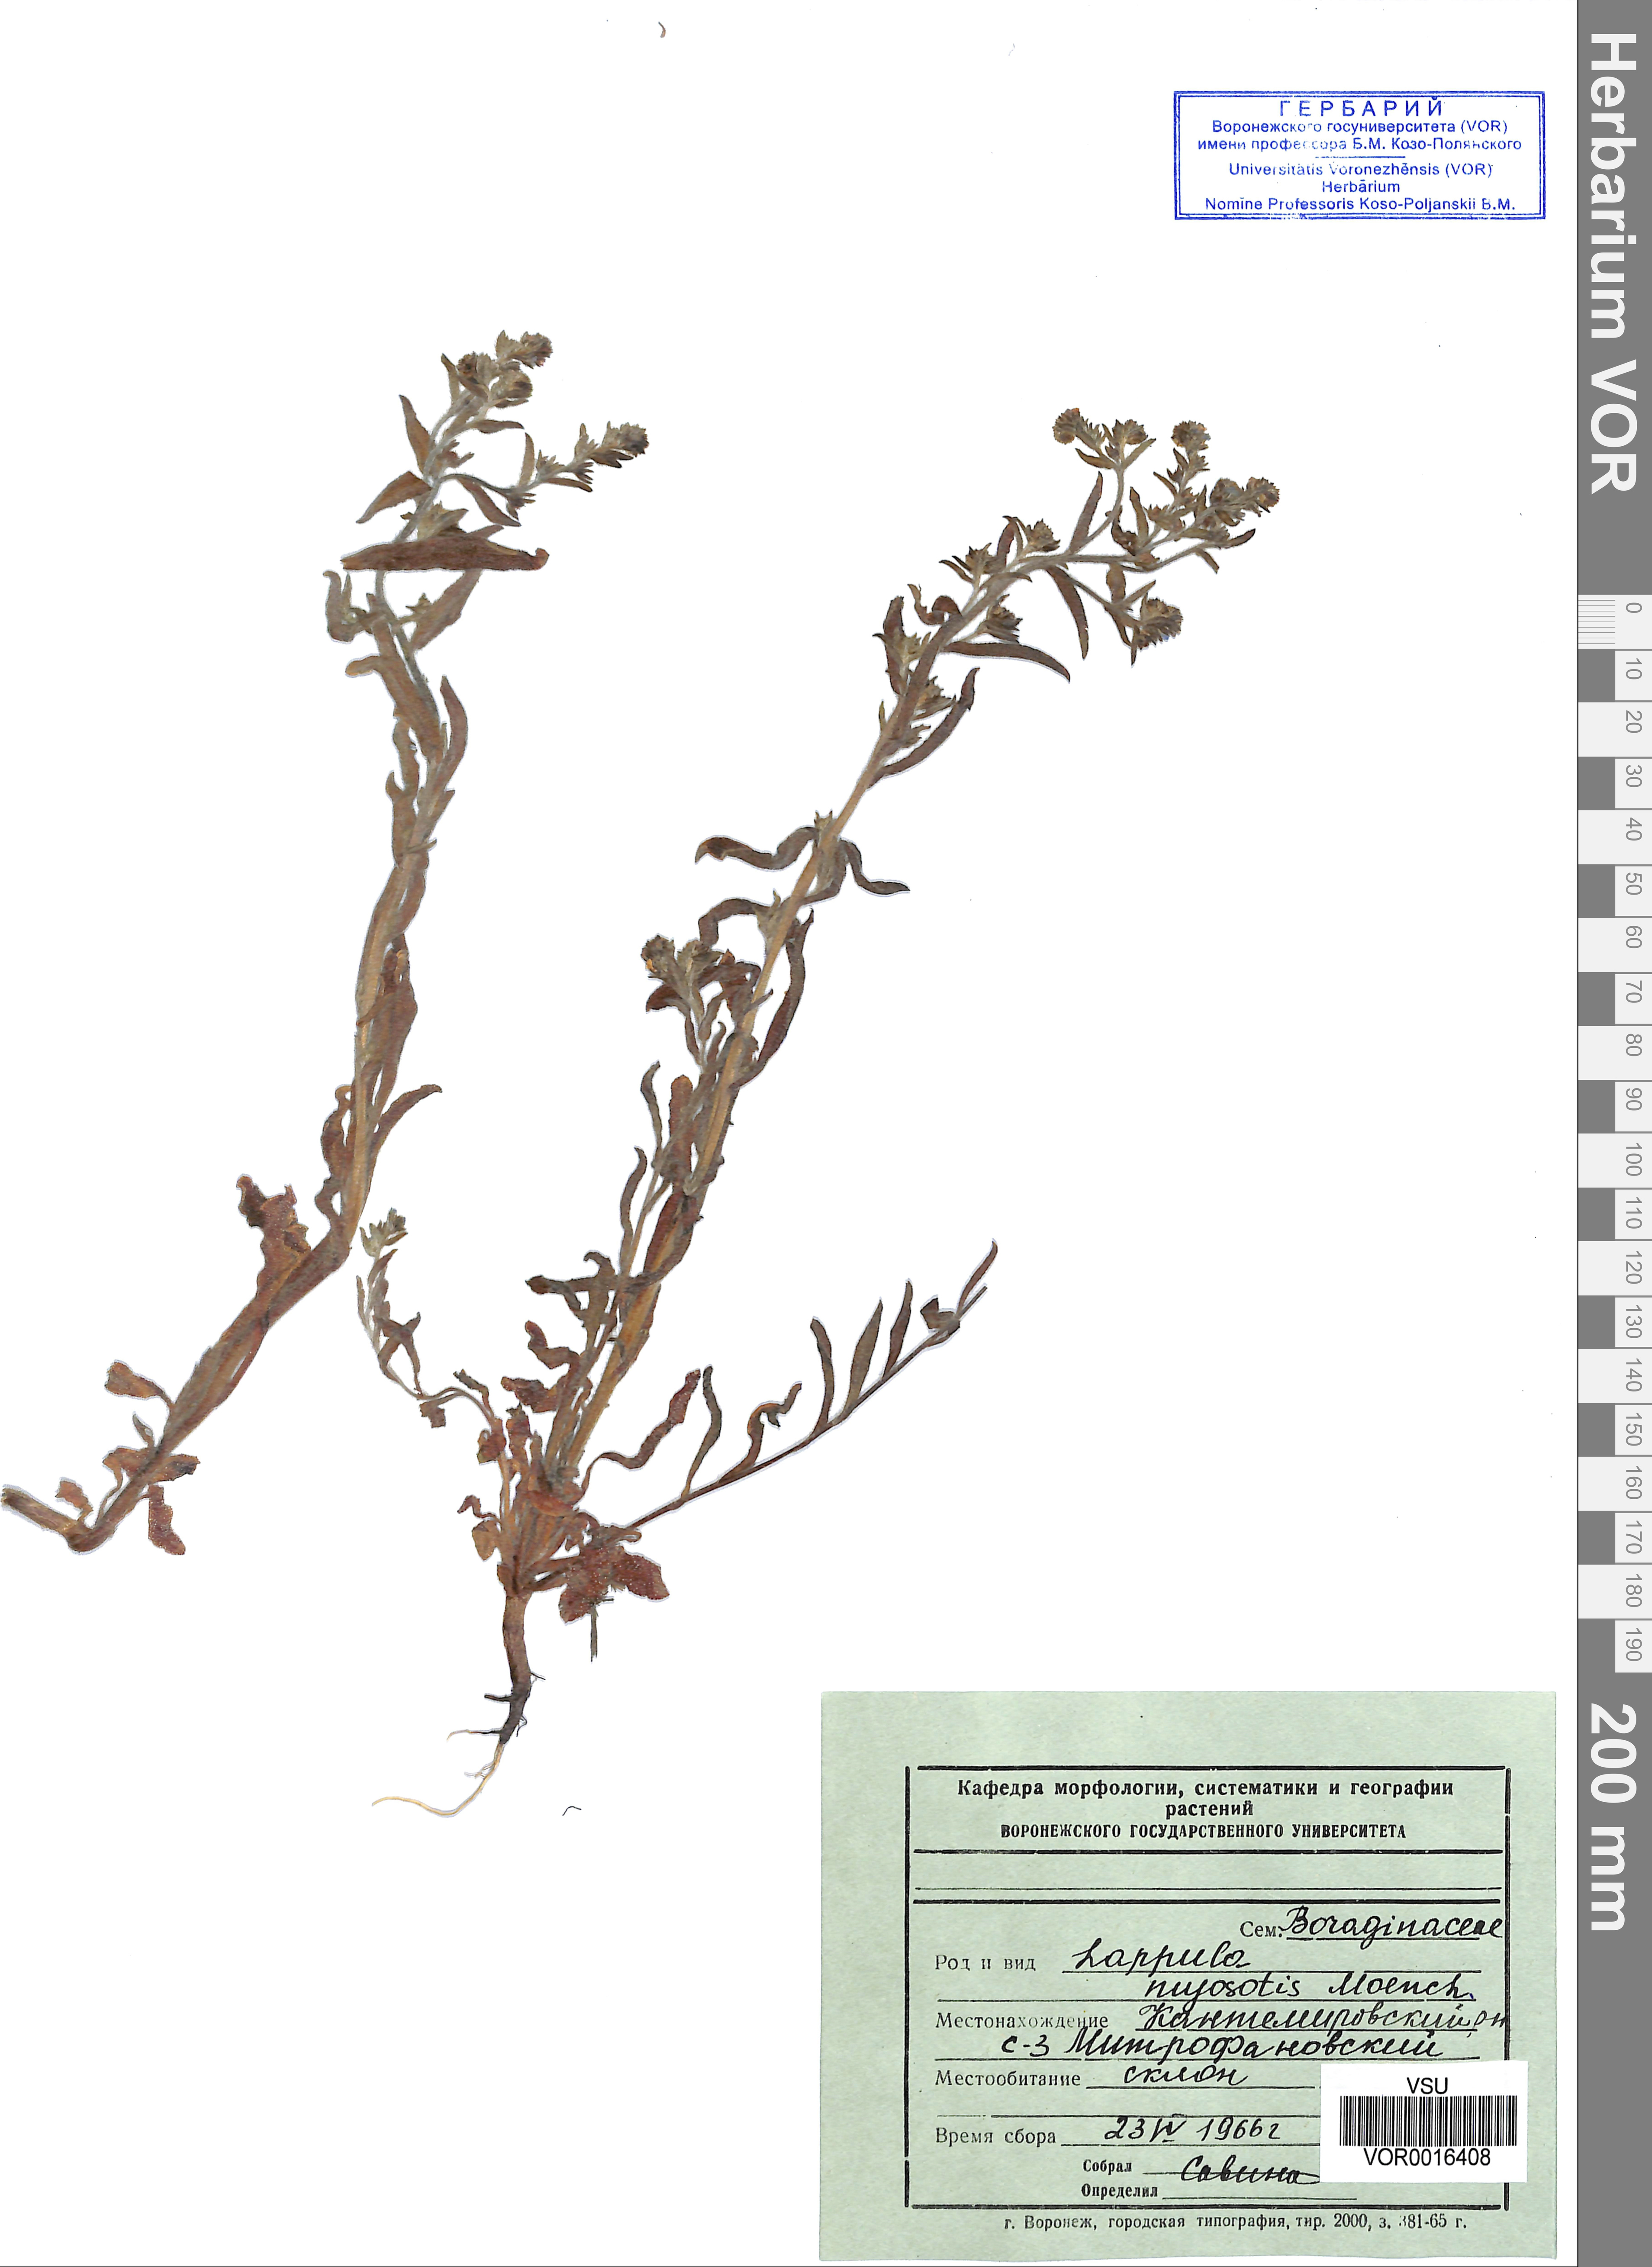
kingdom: Plantae
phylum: Tracheophyta
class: Magnoliopsida
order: Boraginales
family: Boraginaceae
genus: Lappula
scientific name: Lappula squarrosa
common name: European stickseed
